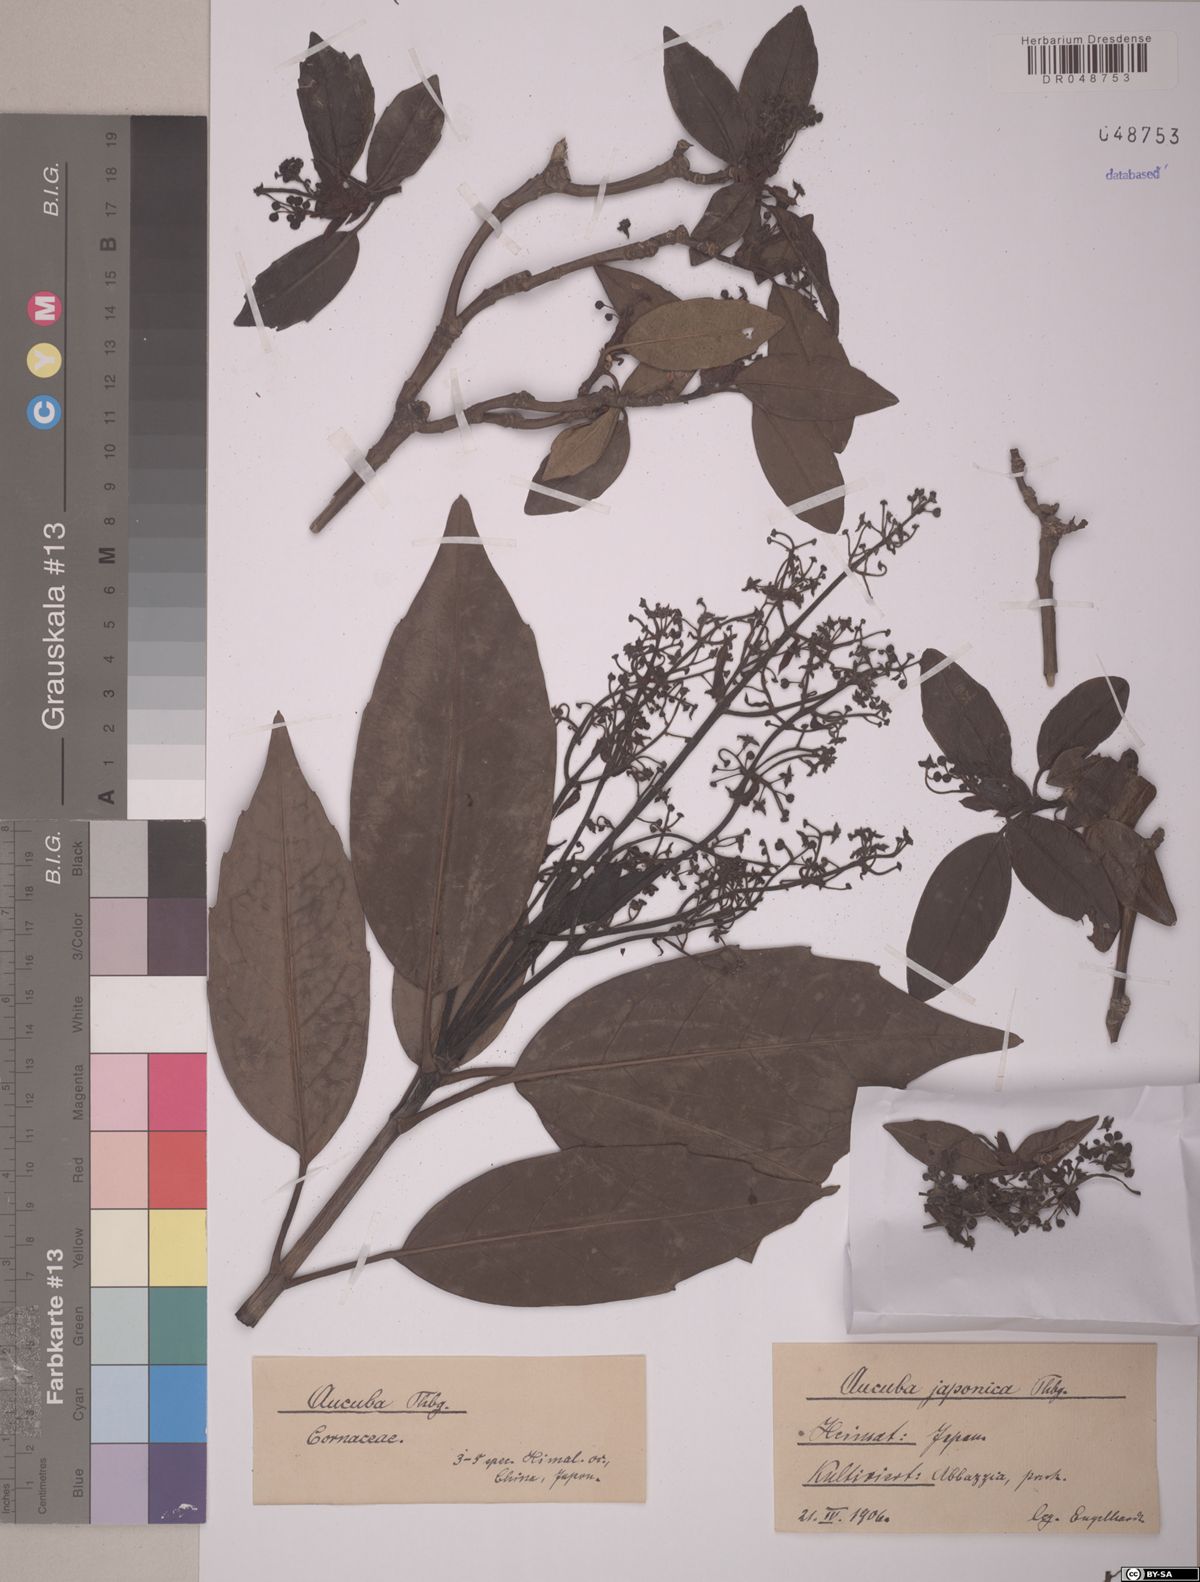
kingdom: Plantae
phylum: Tracheophyta
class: Magnoliopsida
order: Garryales
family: Garryaceae
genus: Aucuba
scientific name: Aucuba japonica
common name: Spotted-laurel
